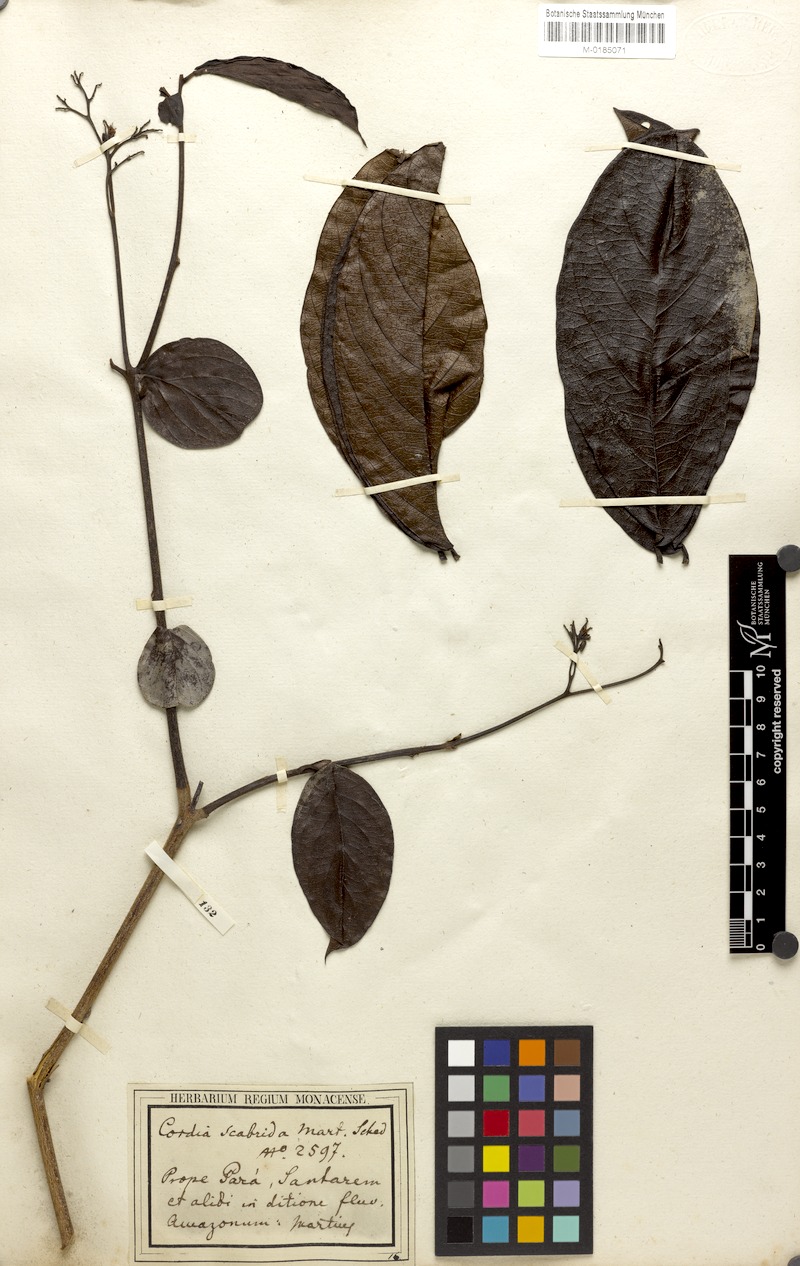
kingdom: Plantae
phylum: Tracheophyta
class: Magnoliopsida
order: Boraginales
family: Cordiaceae
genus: Cordia
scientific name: Cordia exaltata
